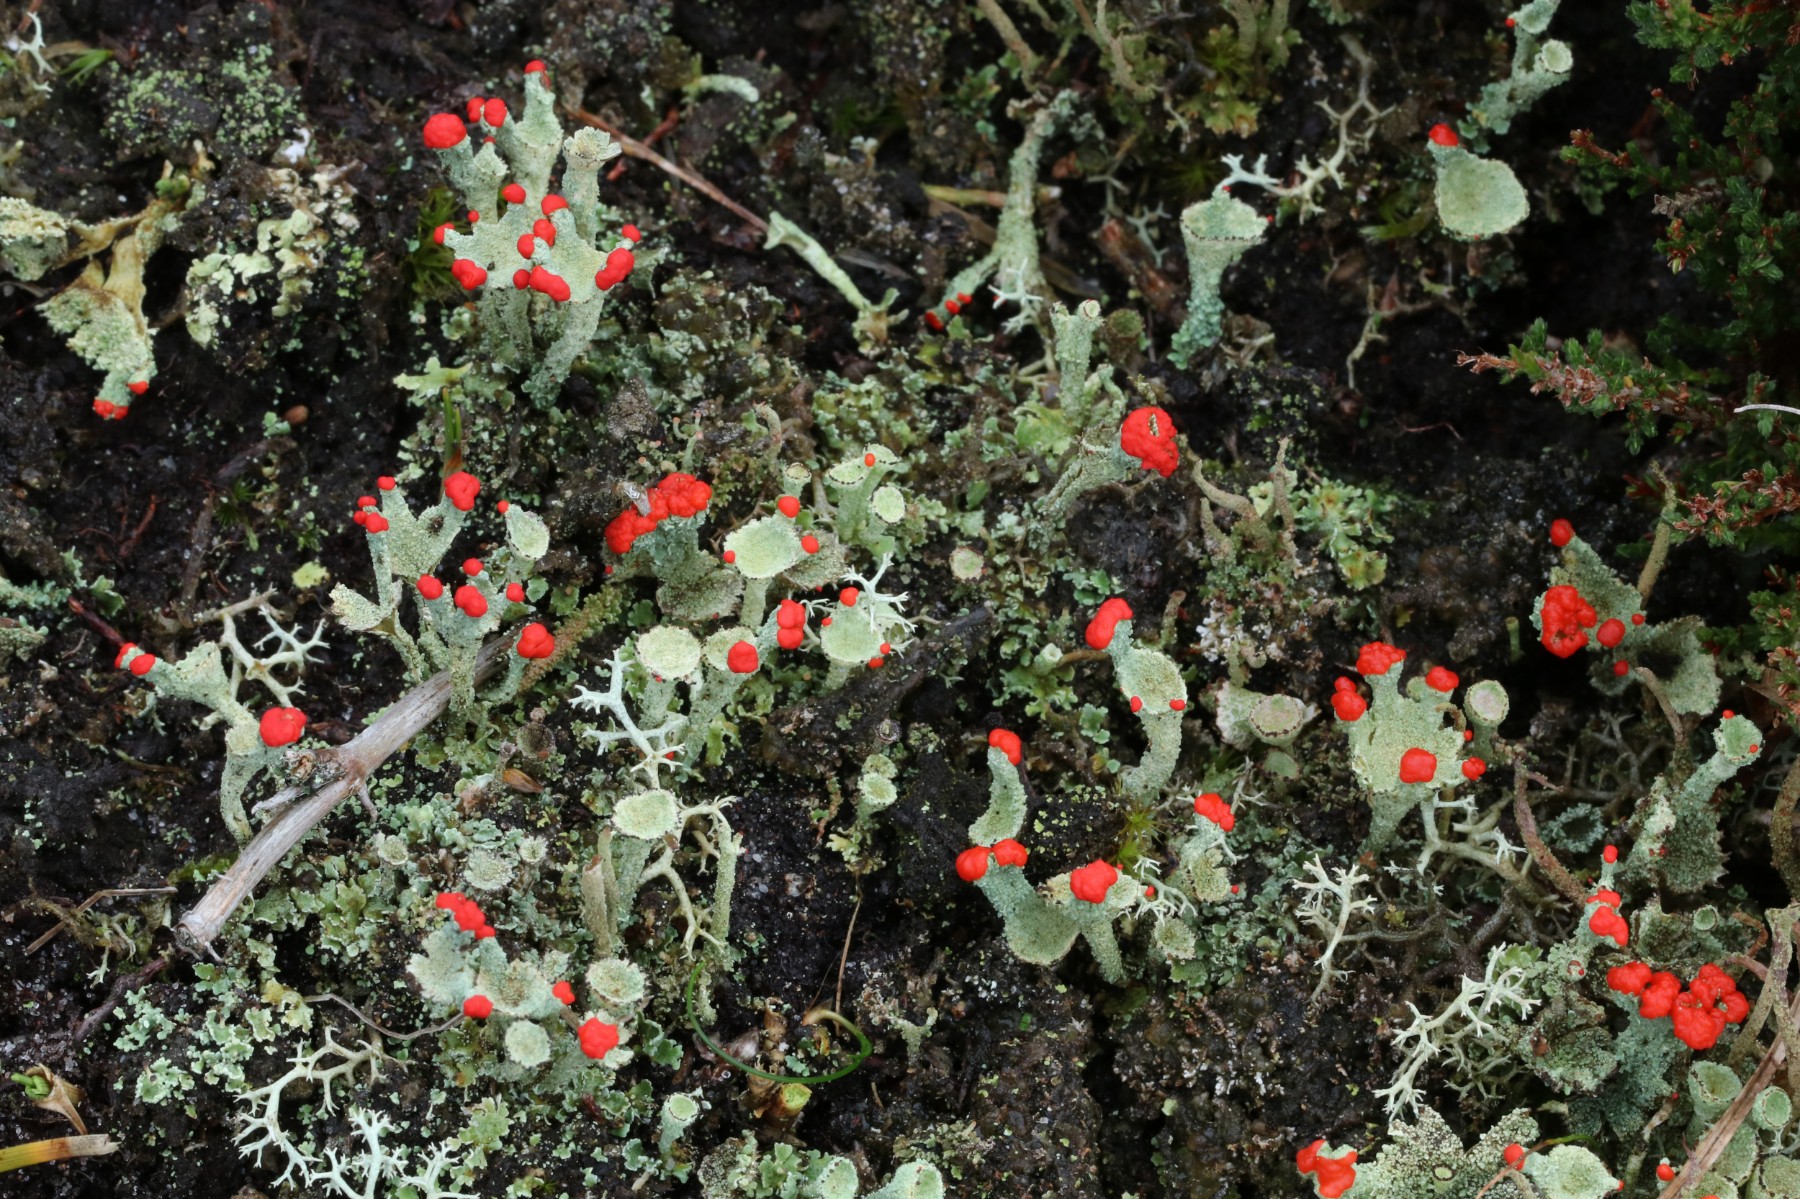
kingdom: Fungi
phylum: Ascomycota
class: Lecanoromycetes
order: Lecanorales
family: Cladoniaceae
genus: Cladonia
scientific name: Cladonia diversa
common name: rød bægerlav
